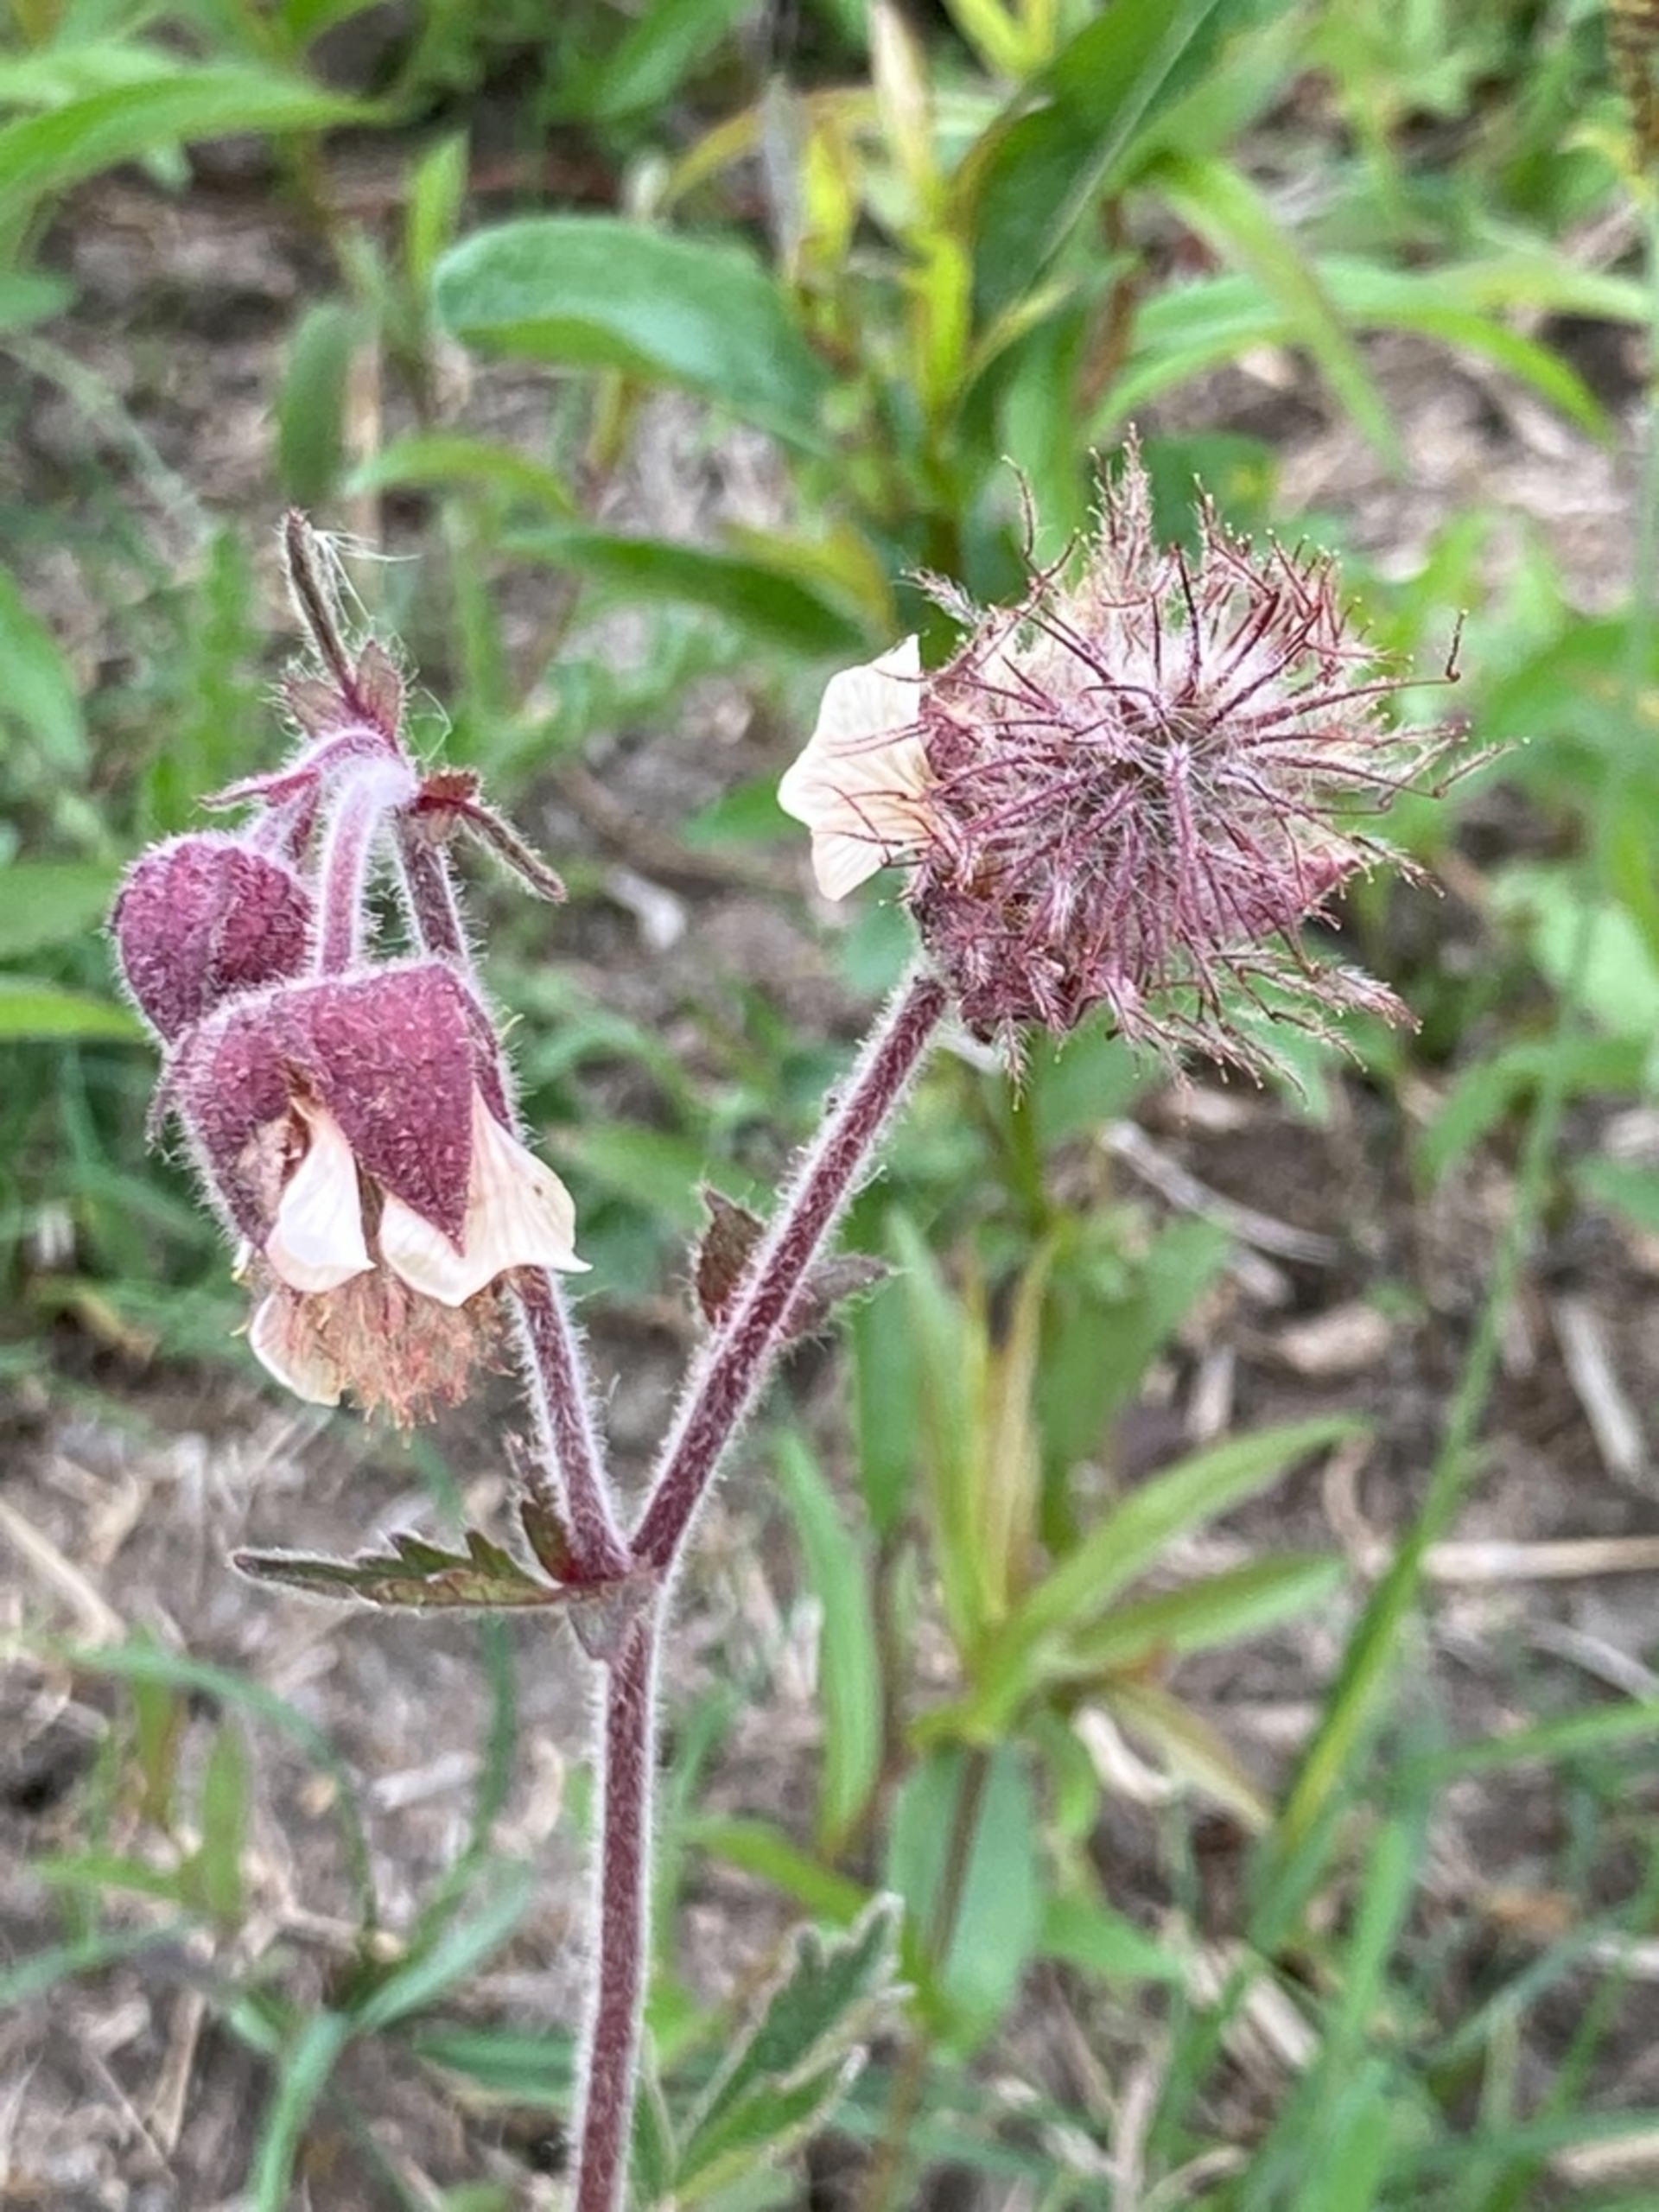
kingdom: Plantae
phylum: Tracheophyta
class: Magnoliopsida
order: Rosales
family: Rosaceae
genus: Geum
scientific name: Geum rivale
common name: Eng-nellikerod
